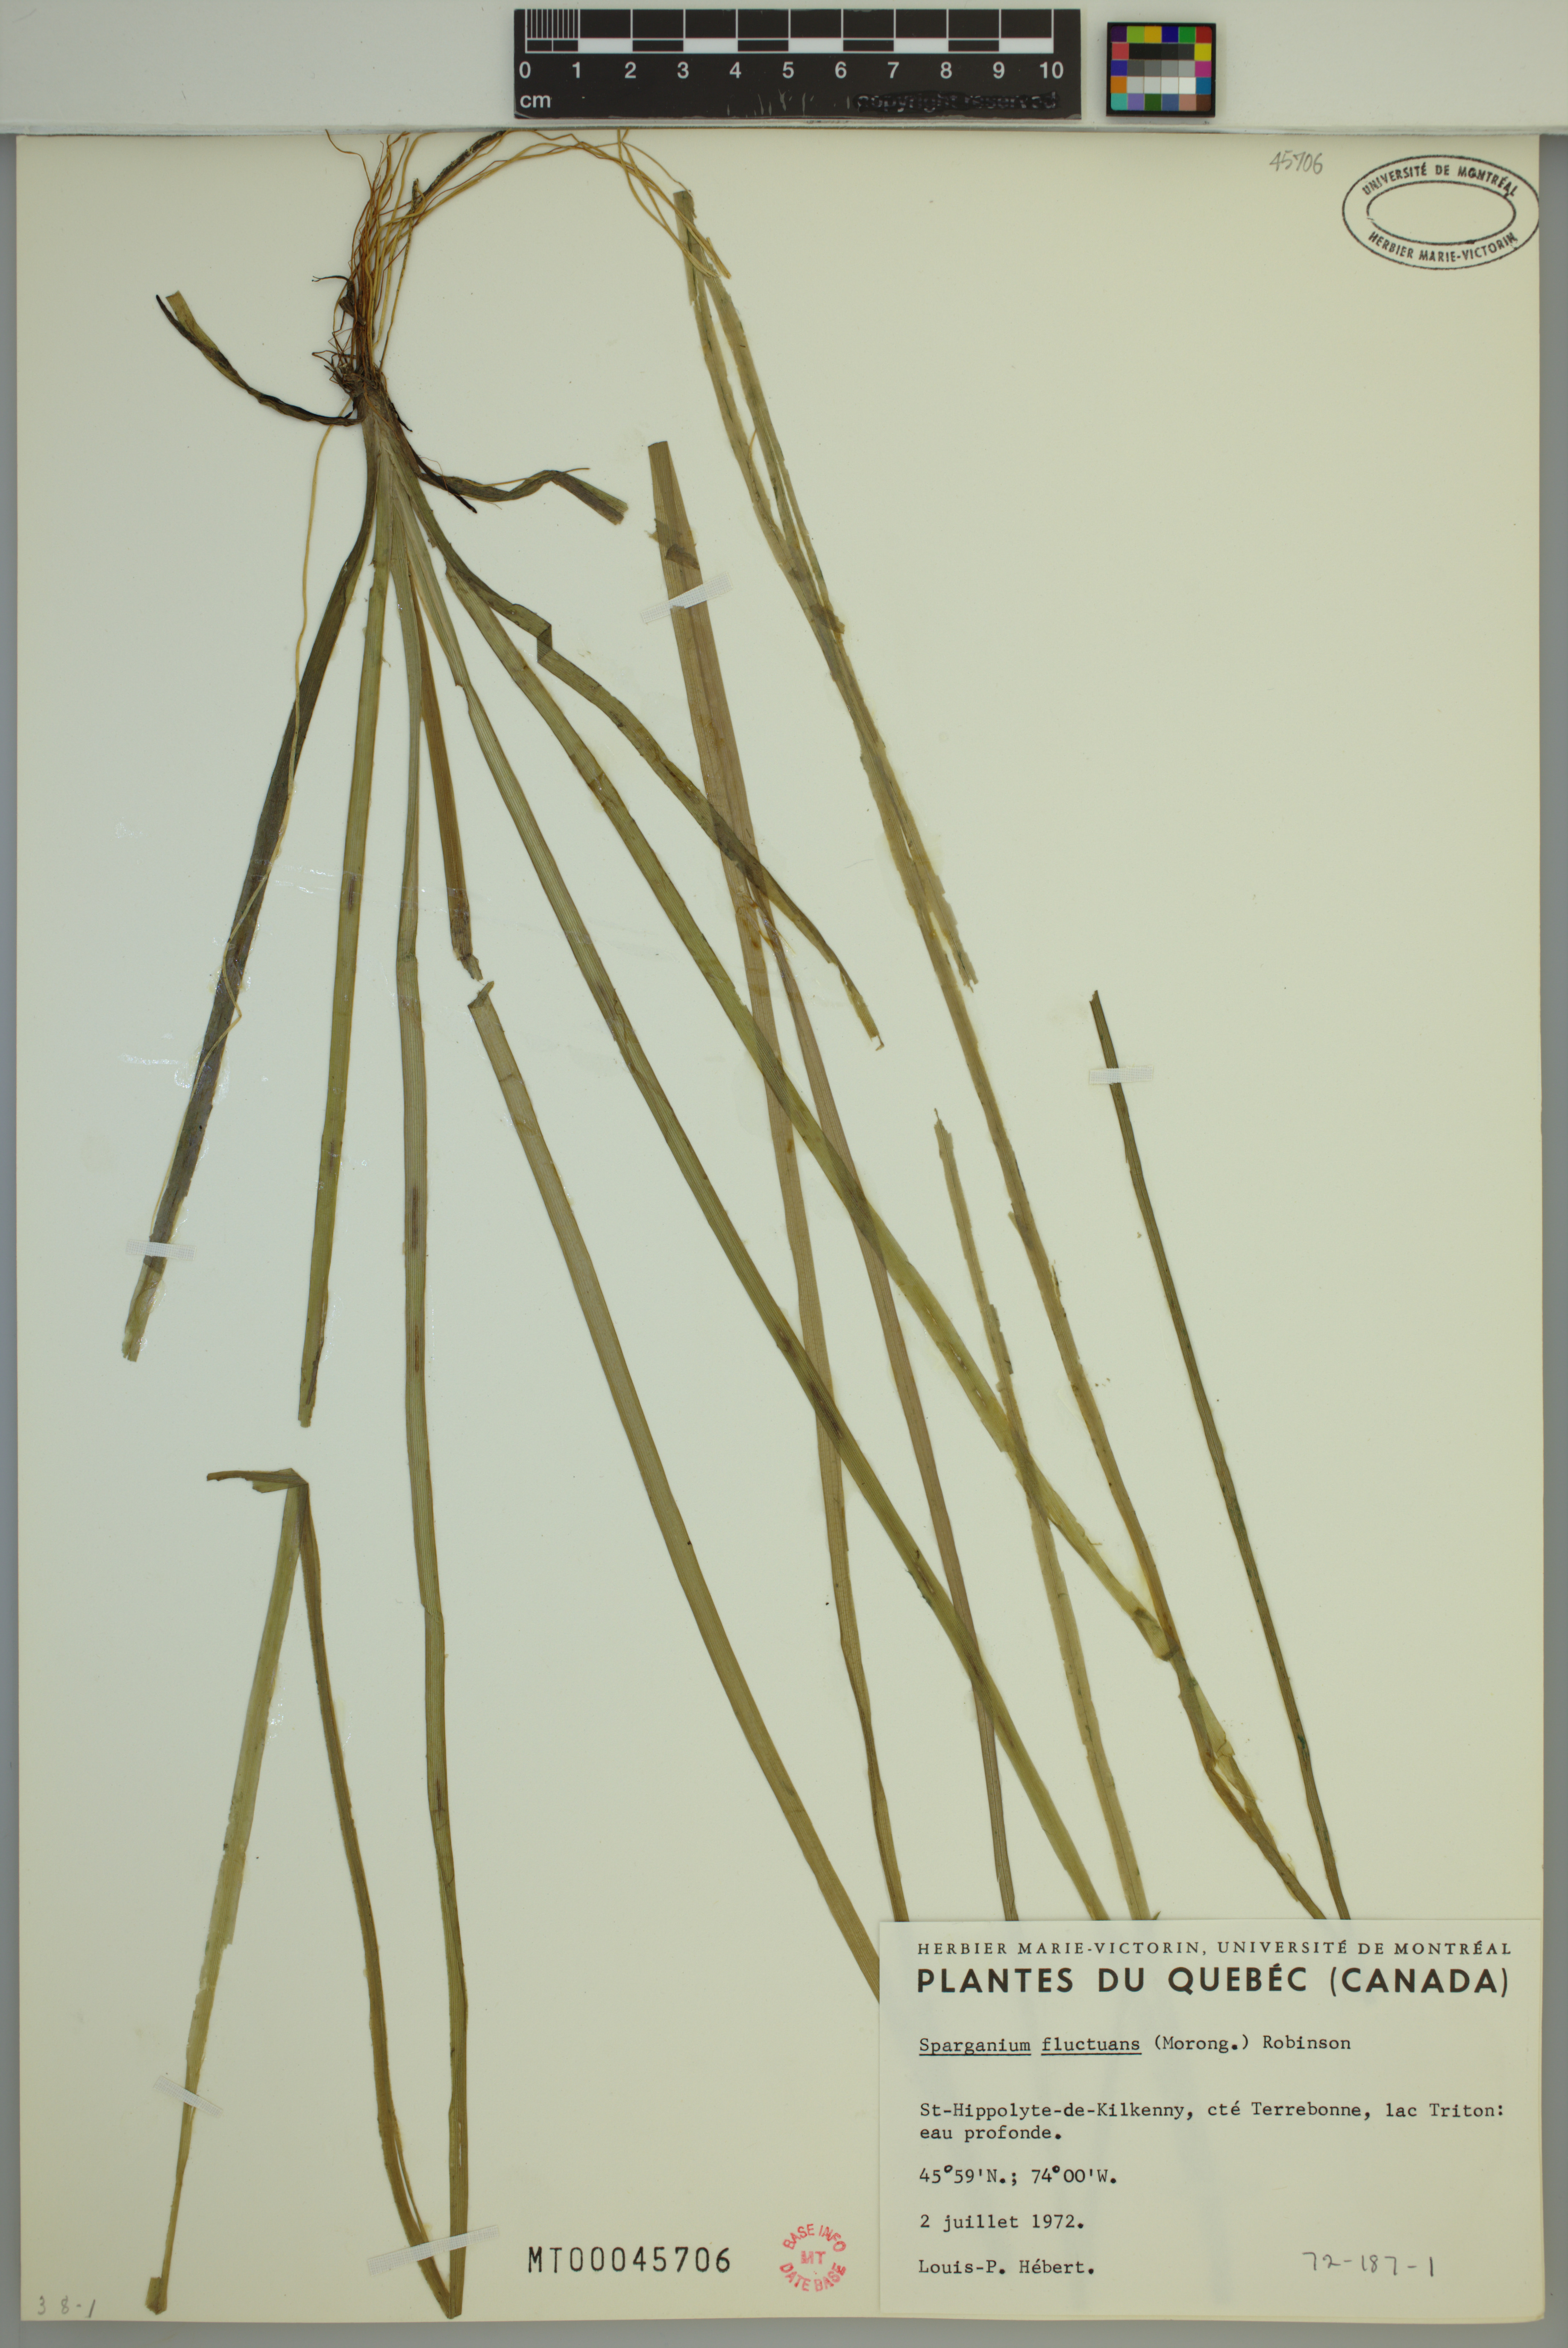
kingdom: Plantae
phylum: Tracheophyta
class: Liliopsida
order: Poales
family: Typhaceae
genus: Sparganium
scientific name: Sparganium fluctuans
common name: Floating burreed
